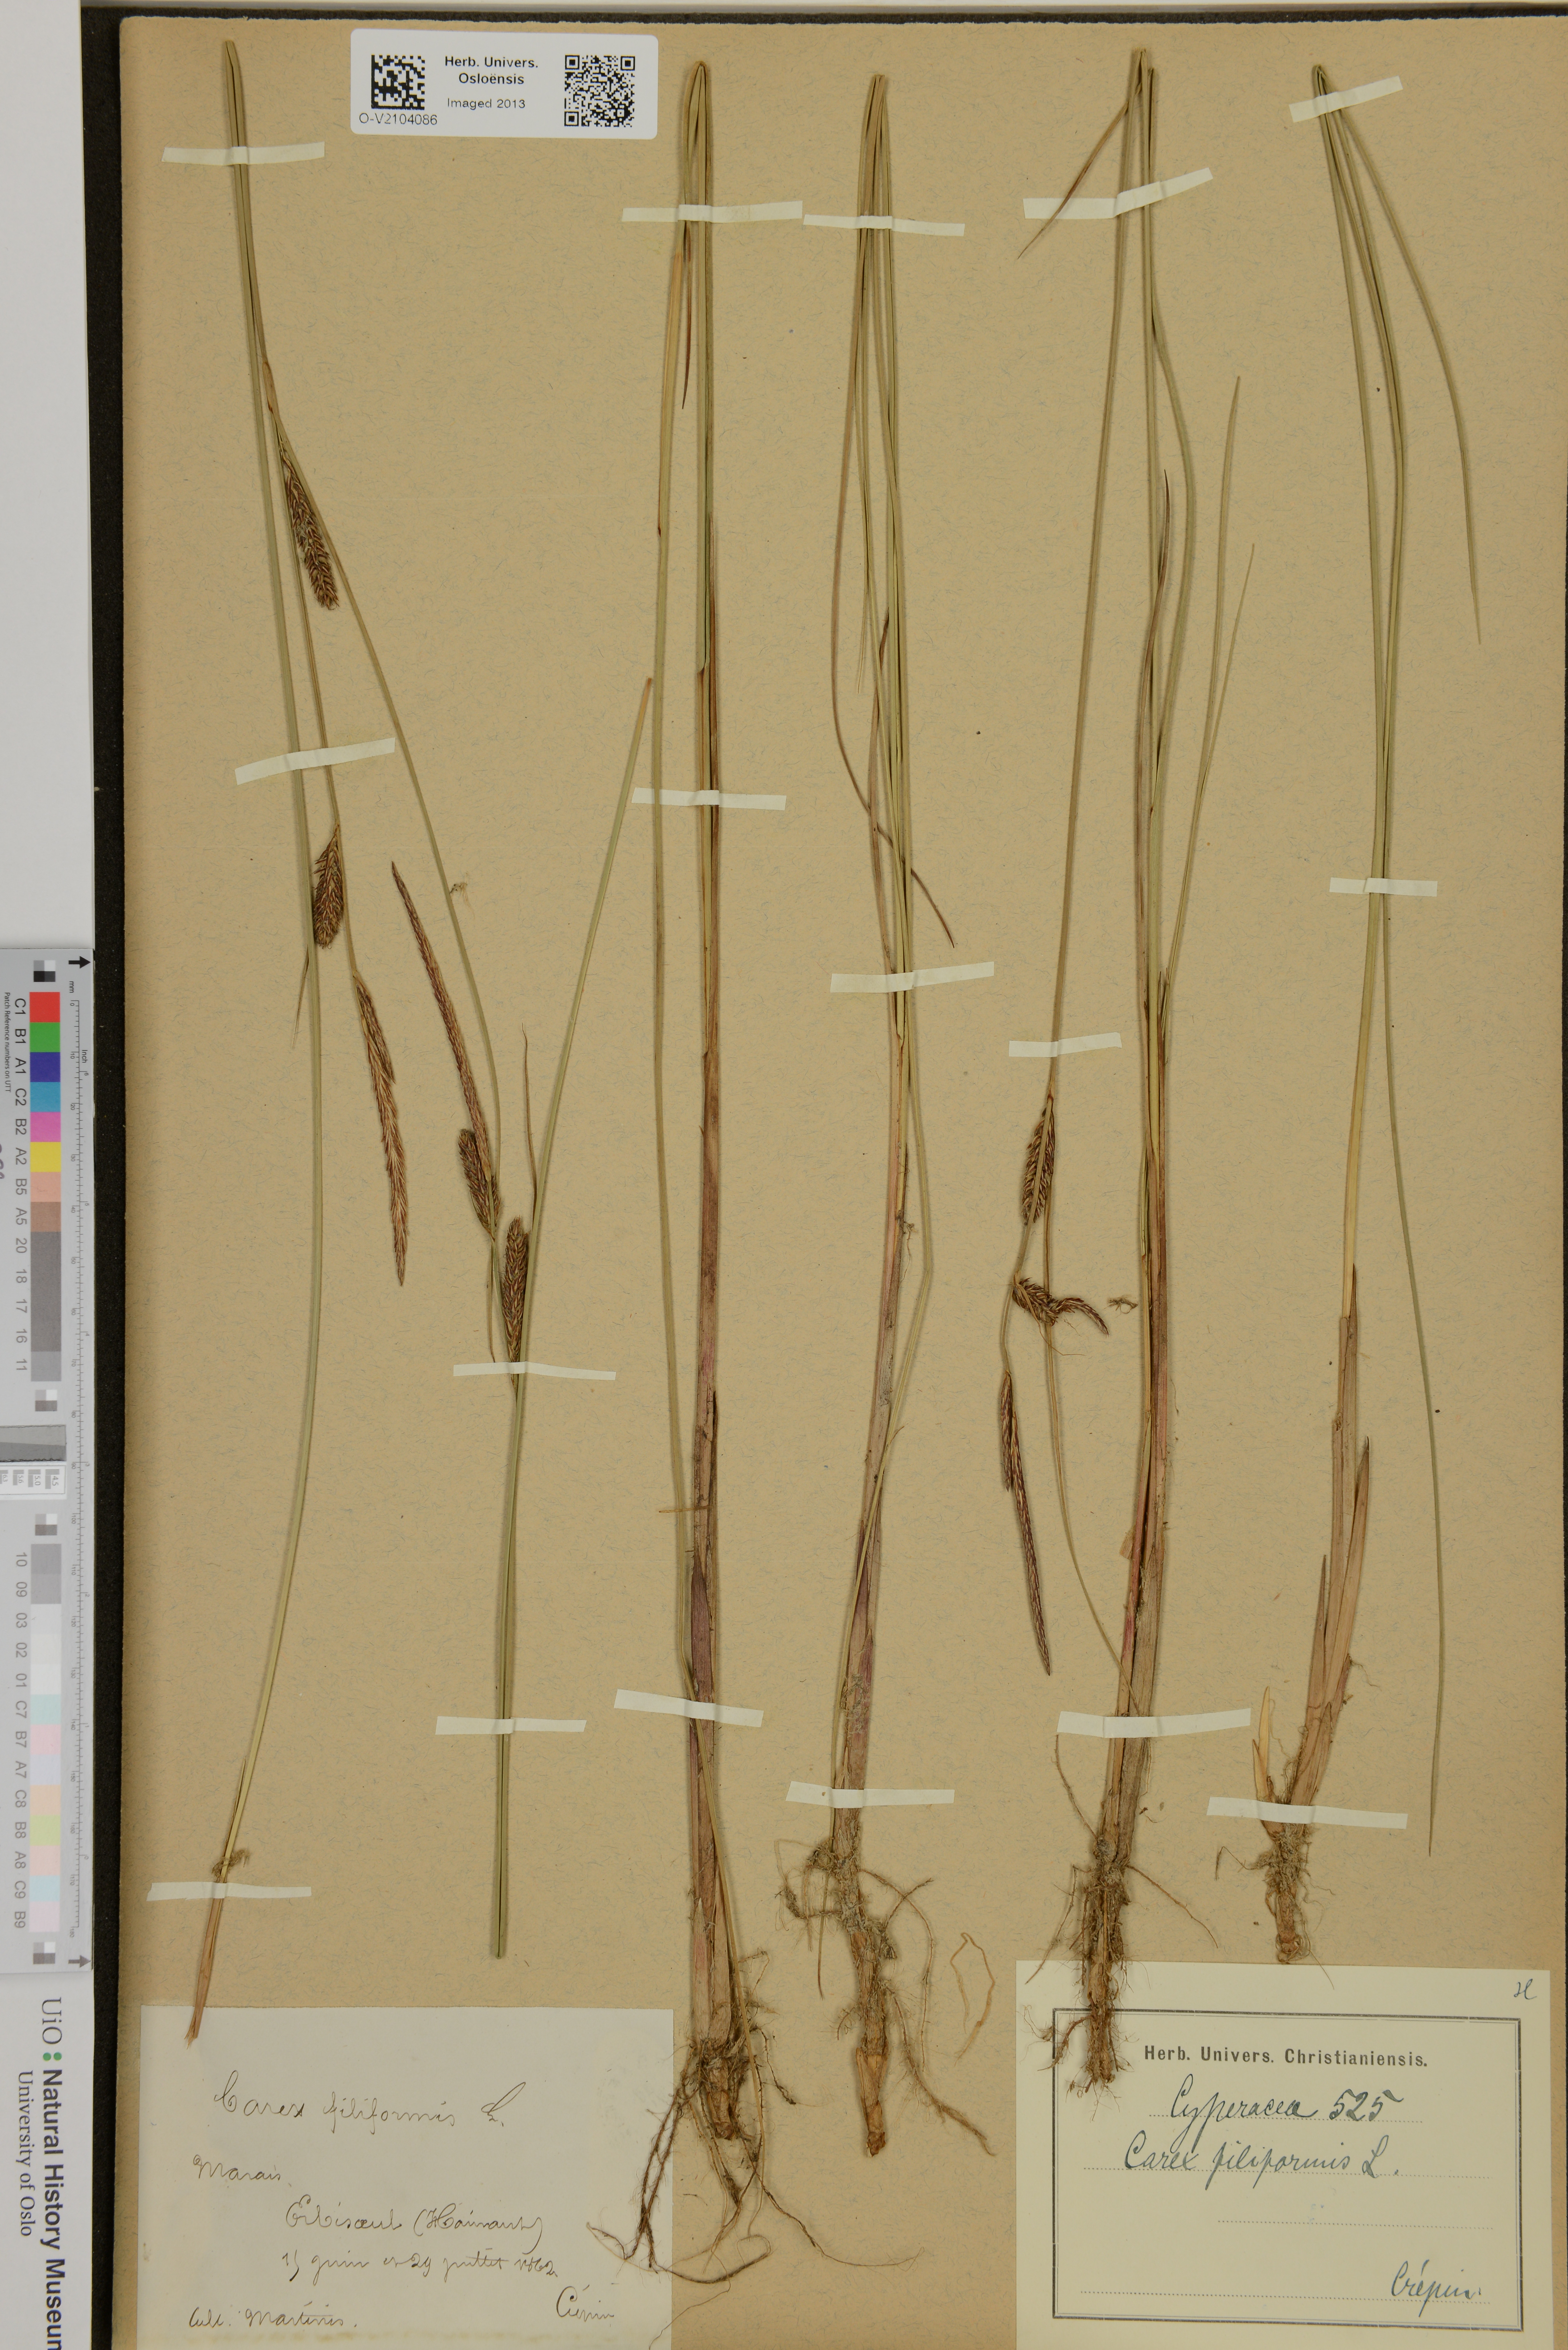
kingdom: Plantae
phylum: Tracheophyta
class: Liliopsida
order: Poales
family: Cyperaceae
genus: Carex
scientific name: Carex montana
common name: Soft-leaved sedge
